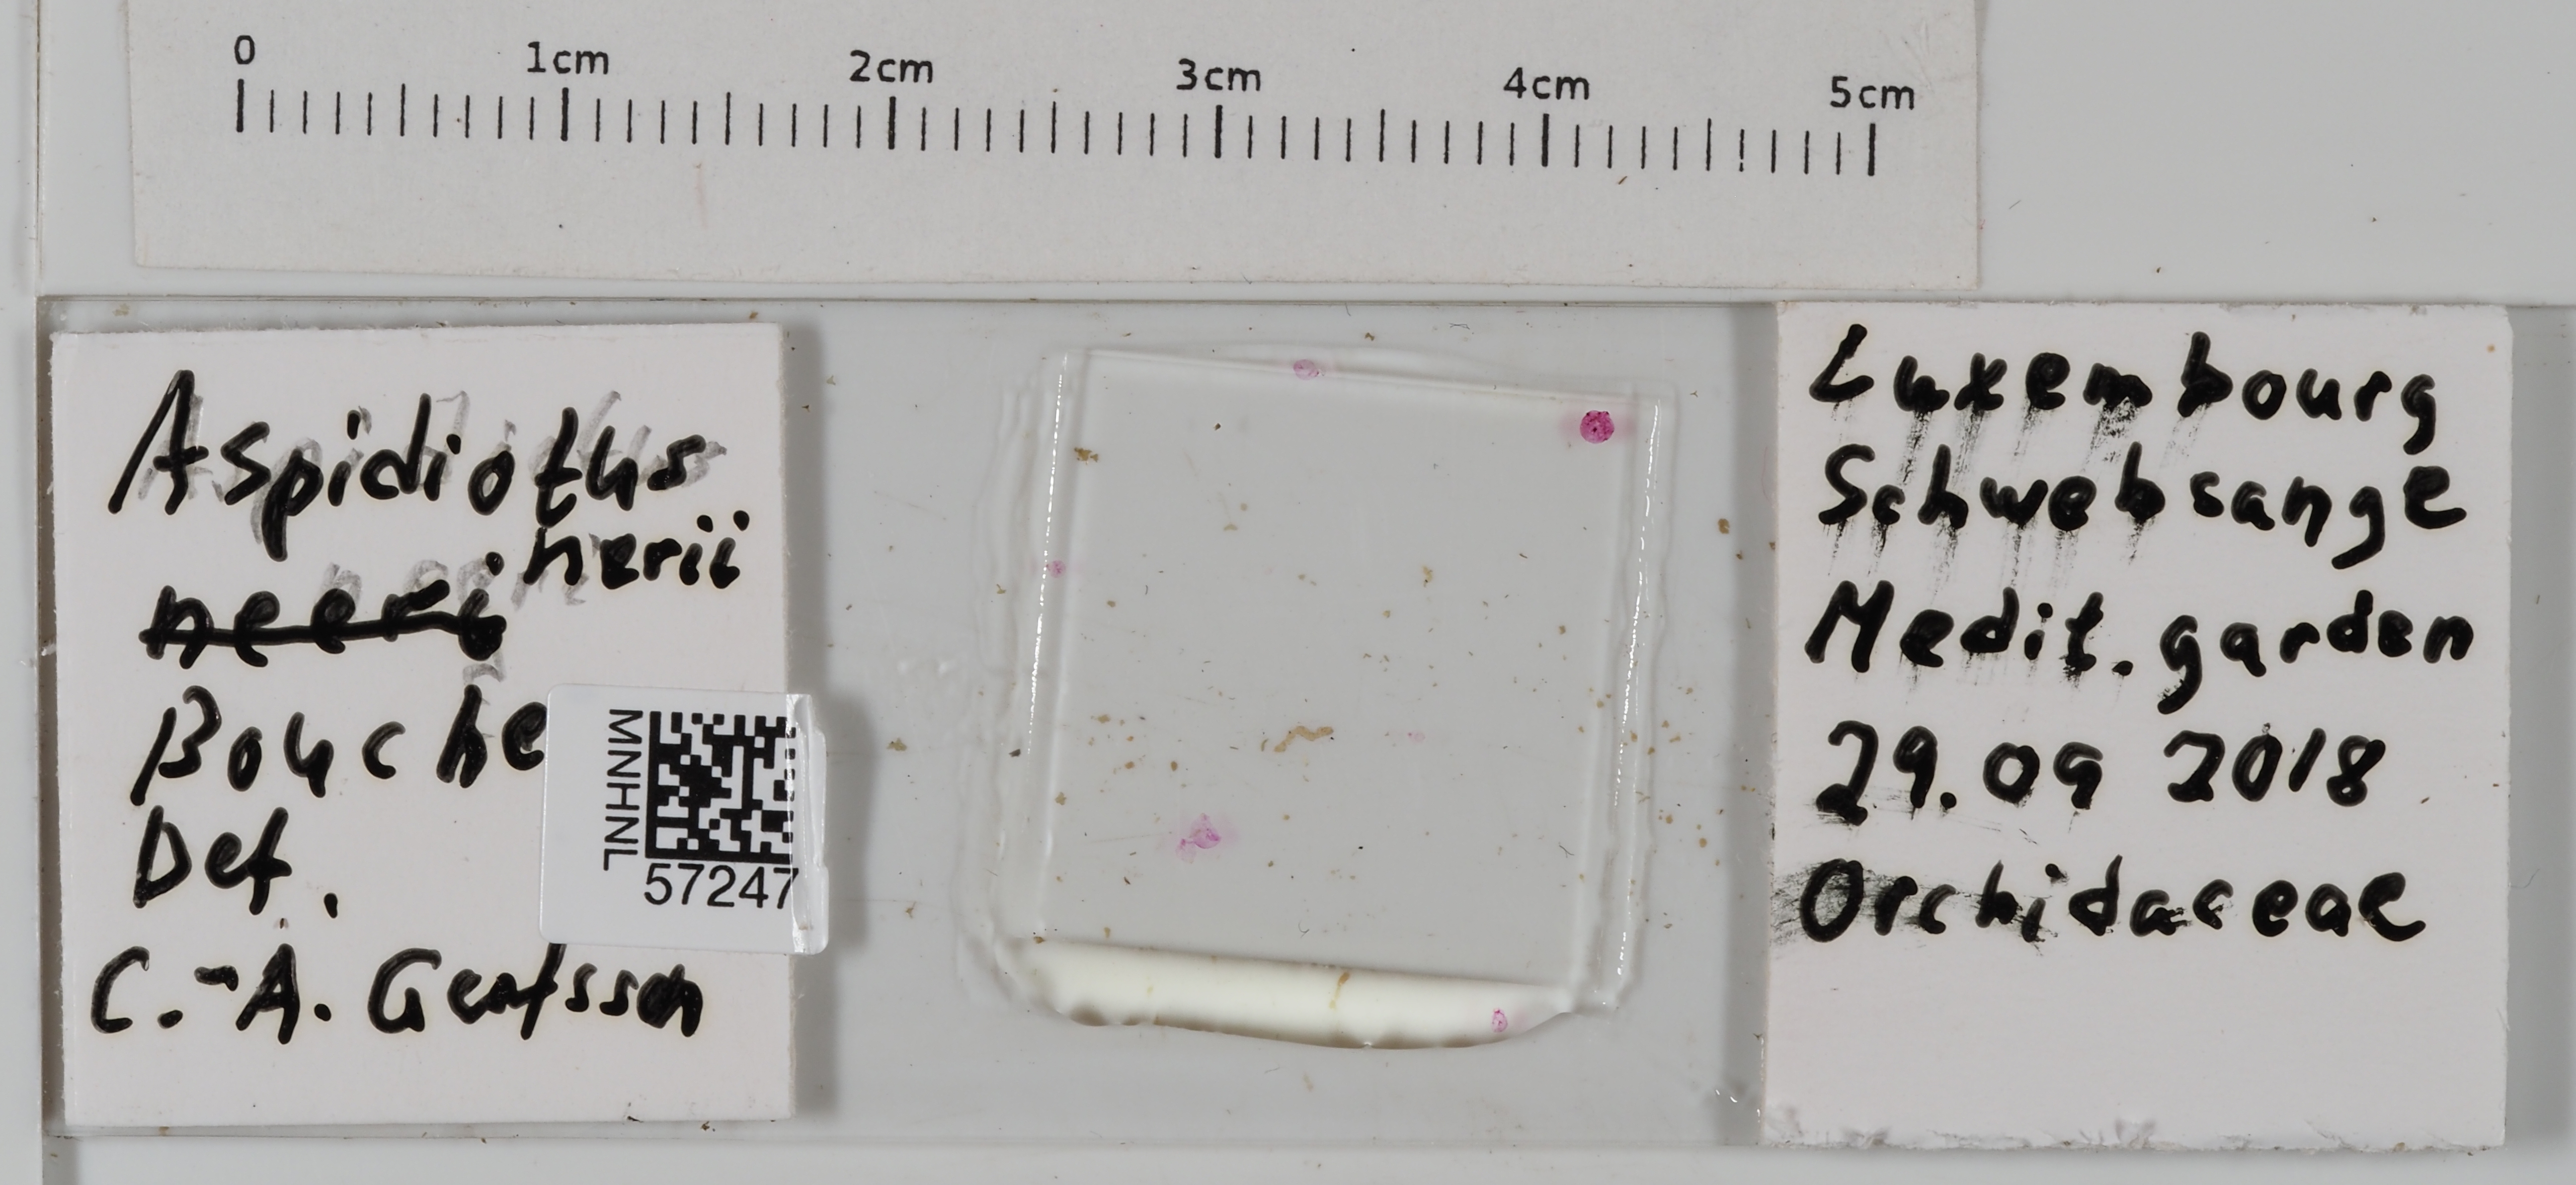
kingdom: Animalia
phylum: Arthropoda
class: Insecta
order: Hemiptera
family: Diaspididae
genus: Aspidiotus
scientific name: Aspidiotus nerii
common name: Oleander scale
